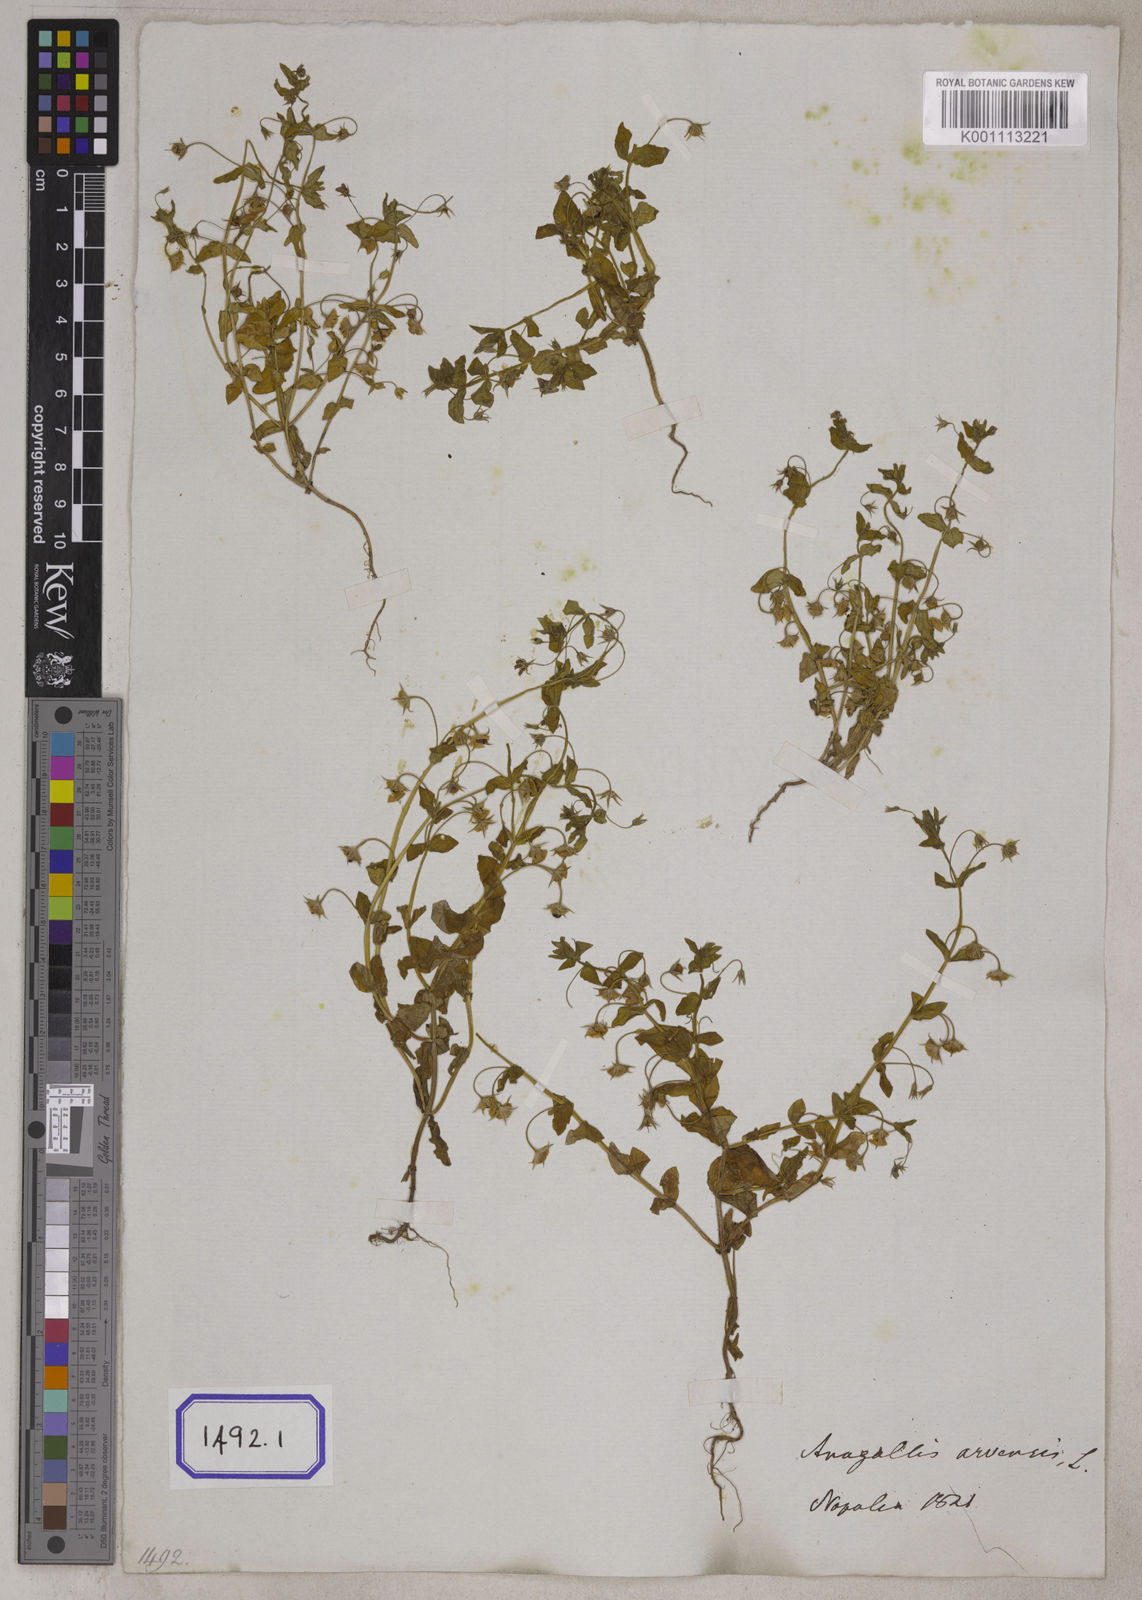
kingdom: Plantae
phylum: Tracheophyta
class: Magnoliopsida
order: Ericales
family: Primulaceae
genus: Lysimachia
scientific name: Lysimachia arvensis
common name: Scarlet pimpernel
